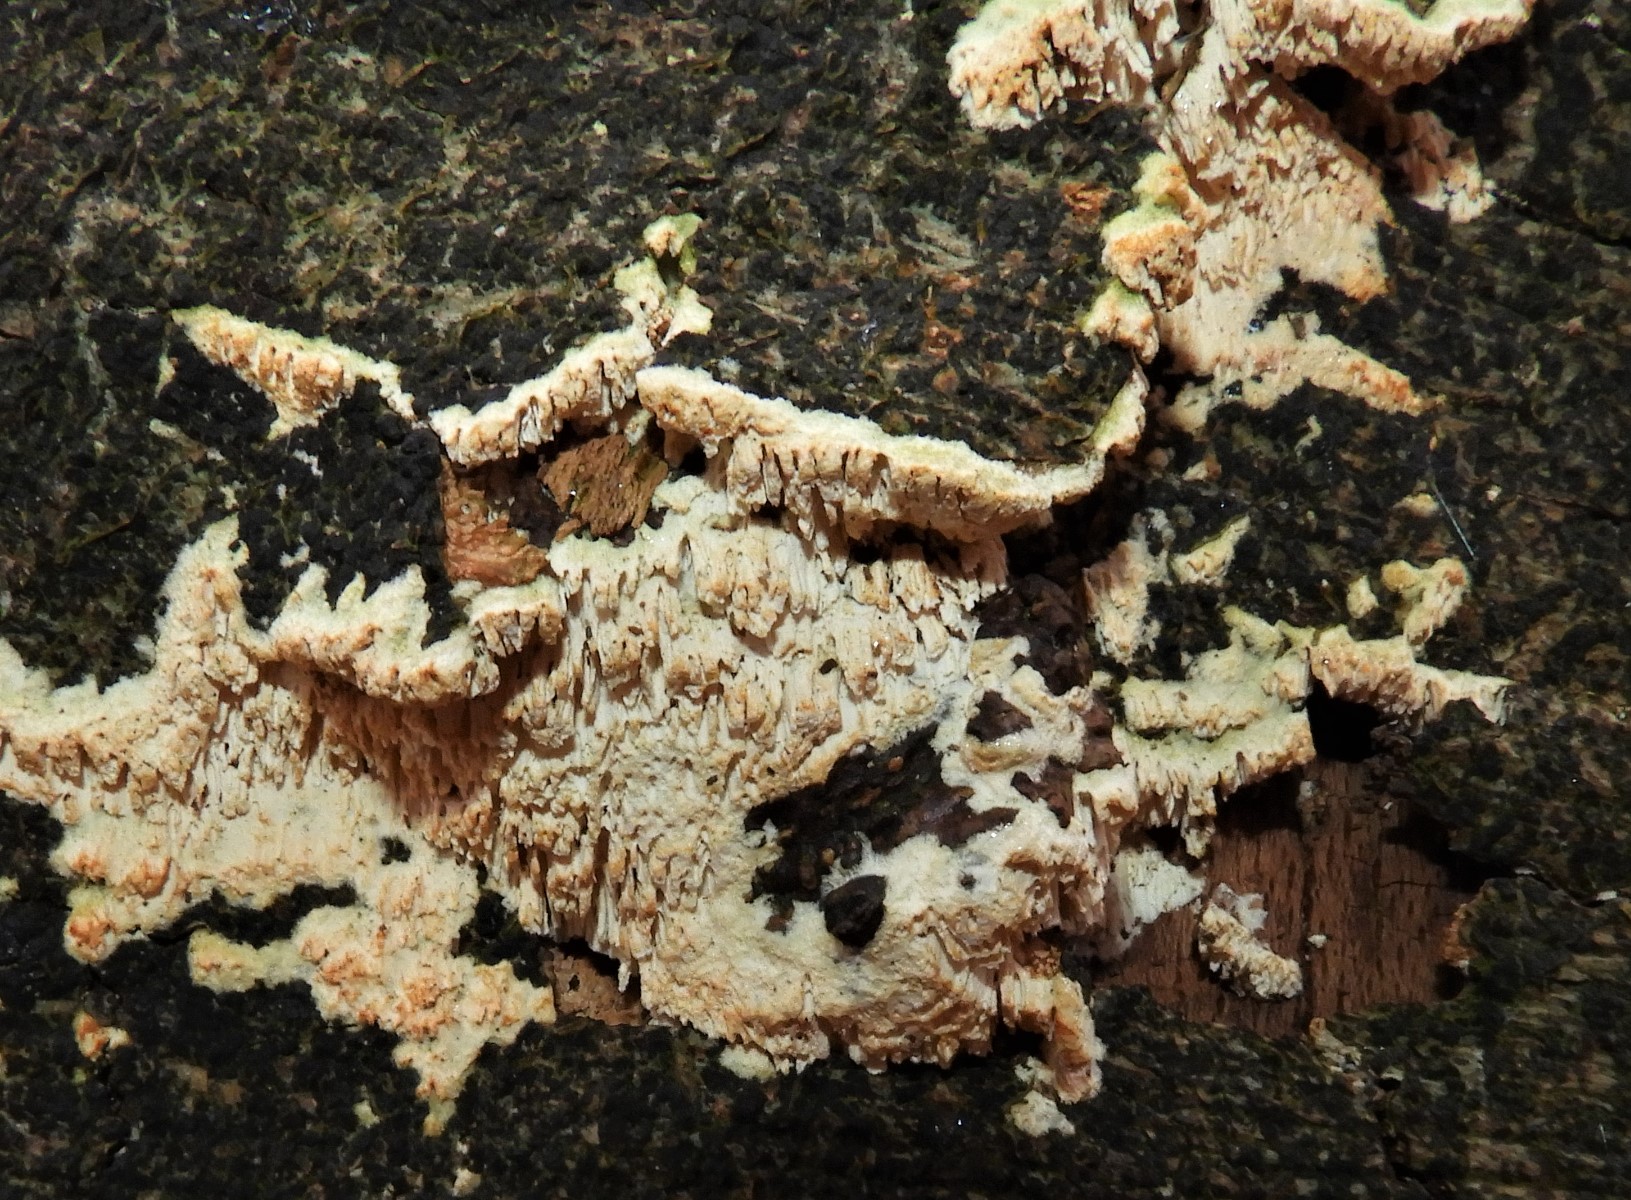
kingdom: Fungi
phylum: Basidiomycota
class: Agaricomycetes
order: Hymenochaetales
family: Schizoporaceae
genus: Xylodon
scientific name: Xylodon radula
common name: grovtandet kalkskind
